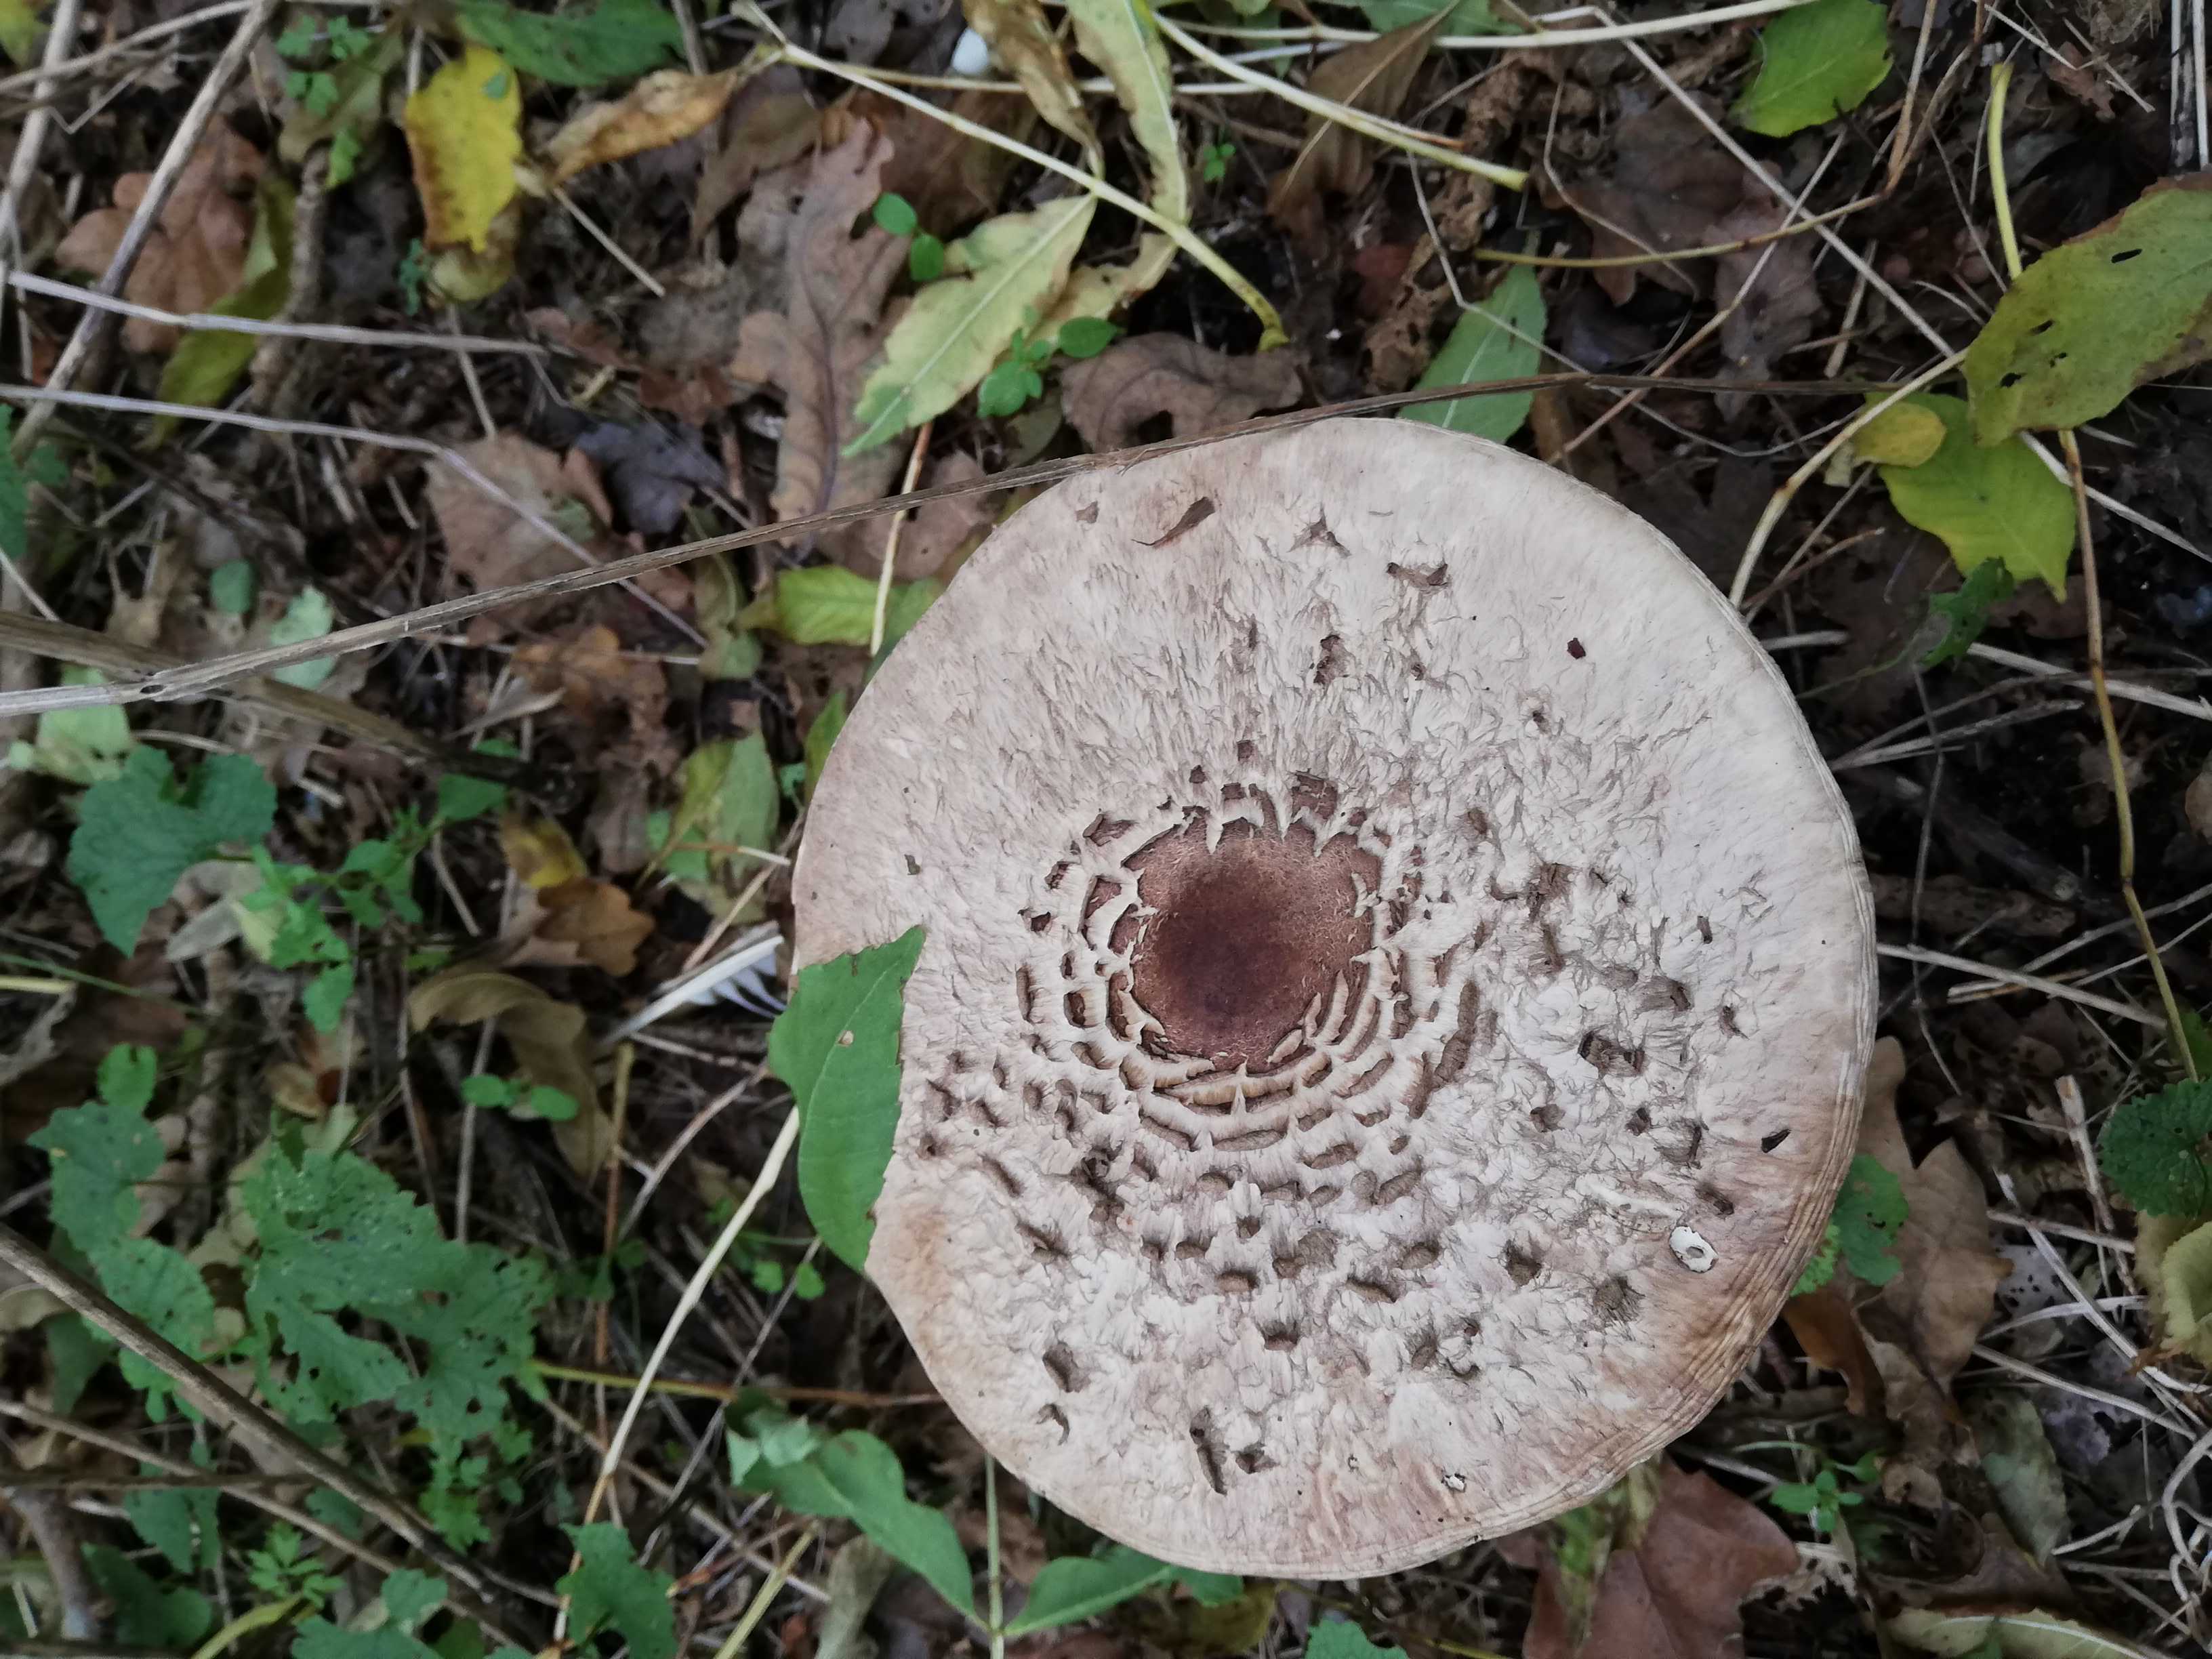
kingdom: Fungi
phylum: Basidiomycota
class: Agaricomycetes
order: Agaricales
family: Agaricaceae
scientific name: Agaricaceae
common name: champignonfamilien
